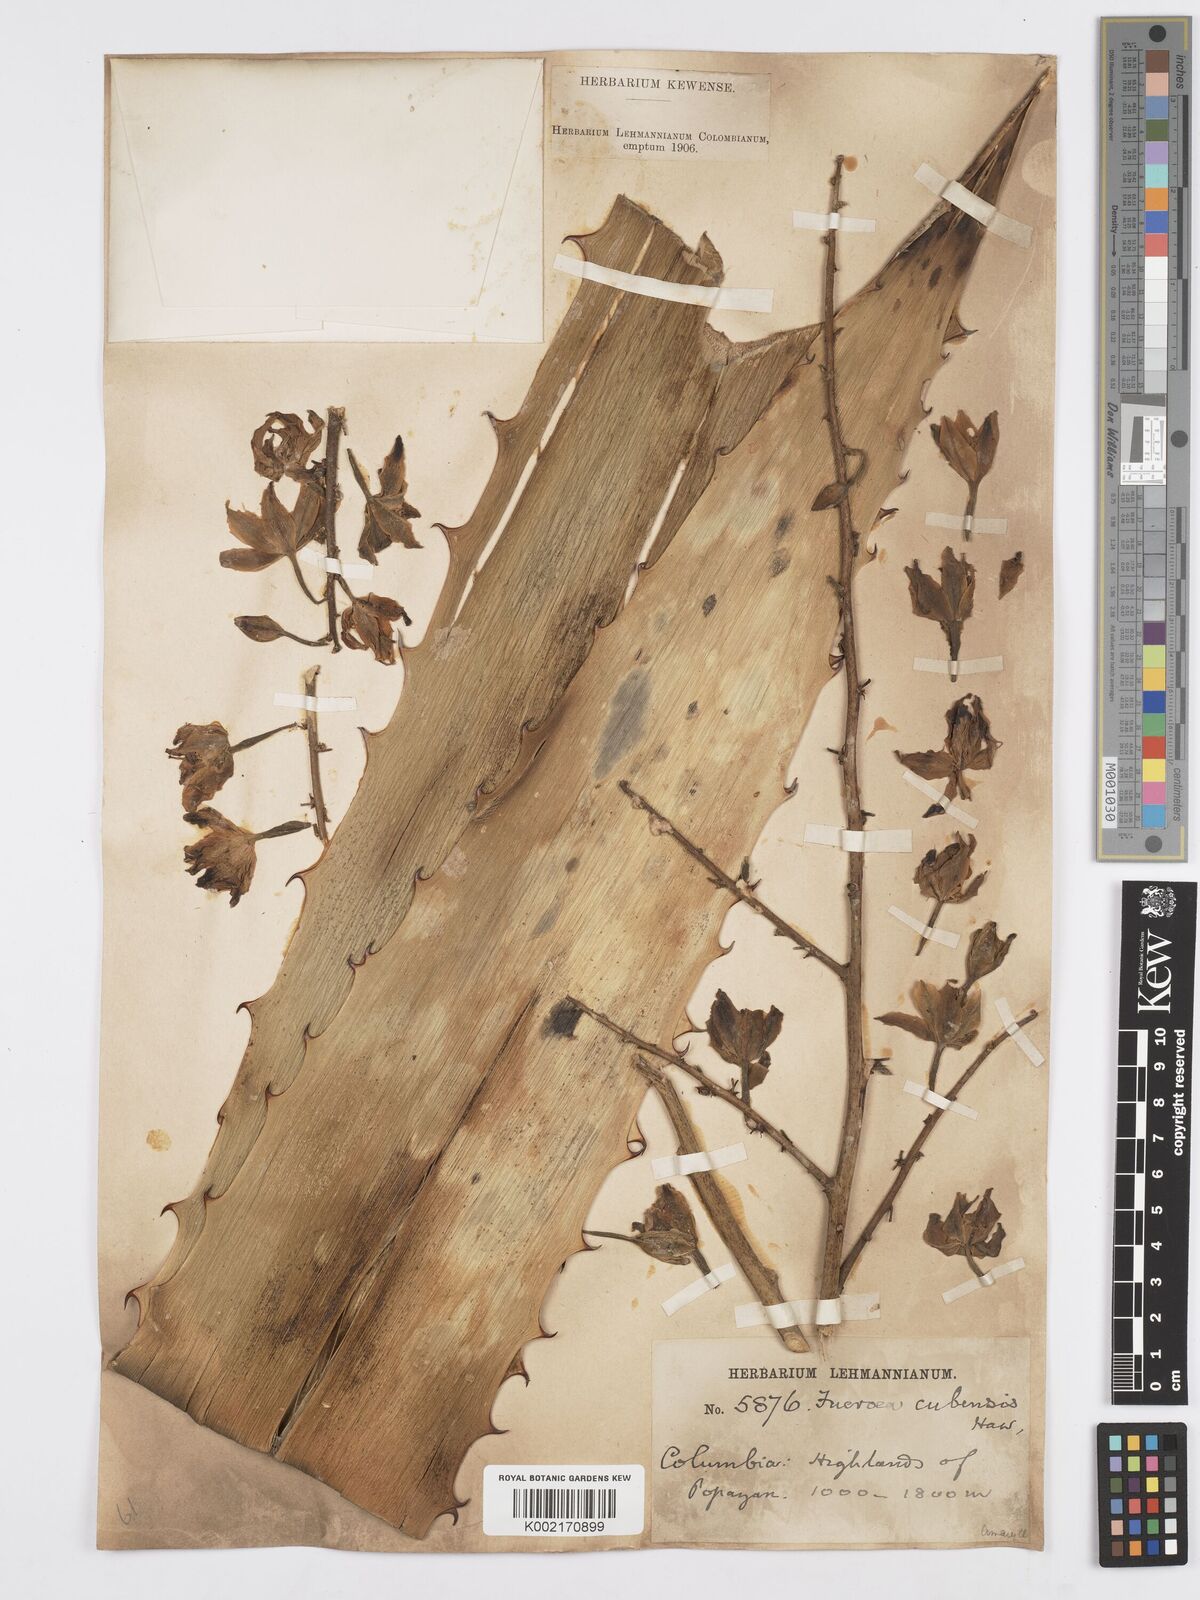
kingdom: Plantae
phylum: Tracheophyta
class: Liliopsida
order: Asparagales
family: Asparagaceae
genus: Furcraea
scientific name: Furcraea hexapetala
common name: Cuban-hemp
